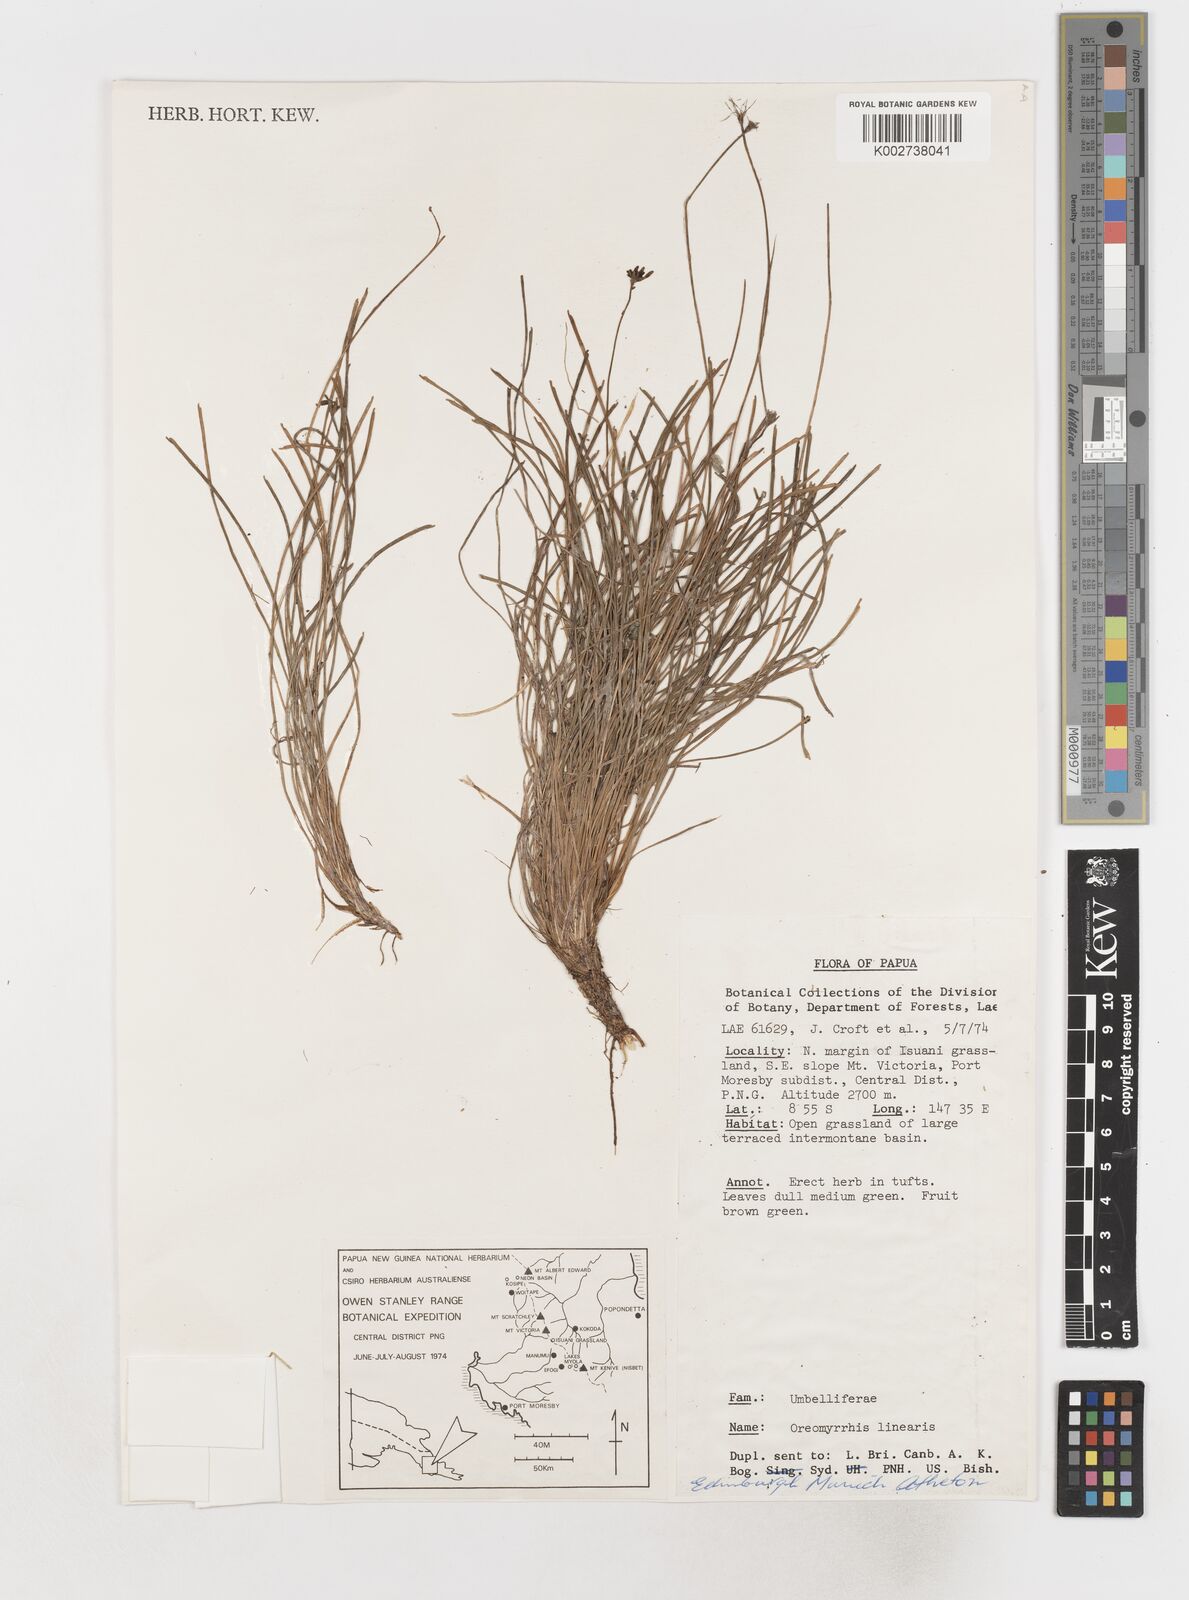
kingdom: Plantae
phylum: Tracheophyta
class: Magnoliopsida
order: Apiales
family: Apiaceae
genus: Chaerophyllum
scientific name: Chaerophyllum lineare
